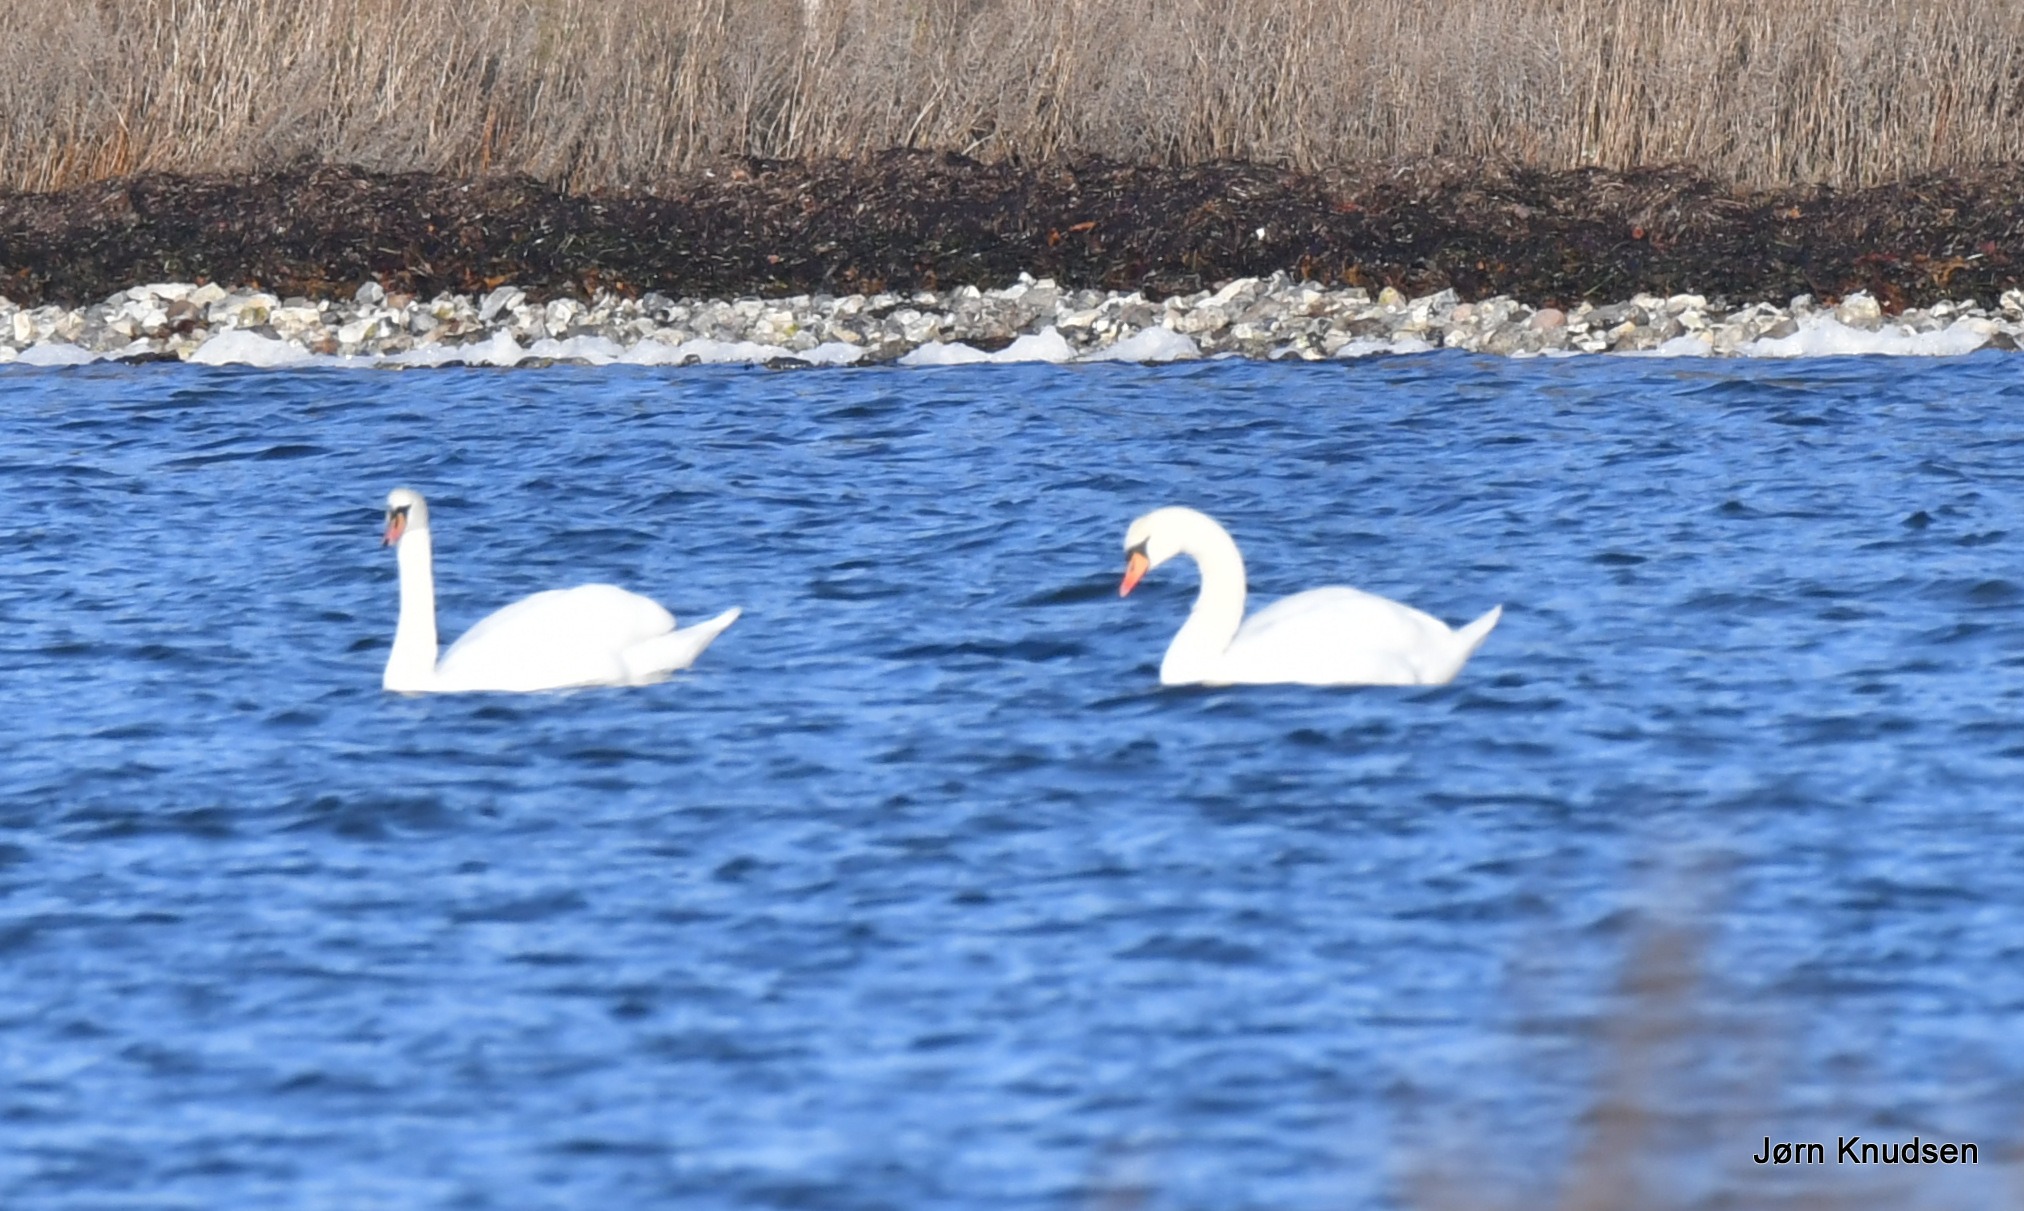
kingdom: Animalia
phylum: Chordata
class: Aves
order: Anseriformes
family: Anatidae
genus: Cygnus
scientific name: Cygnus olor
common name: Knopsvane
